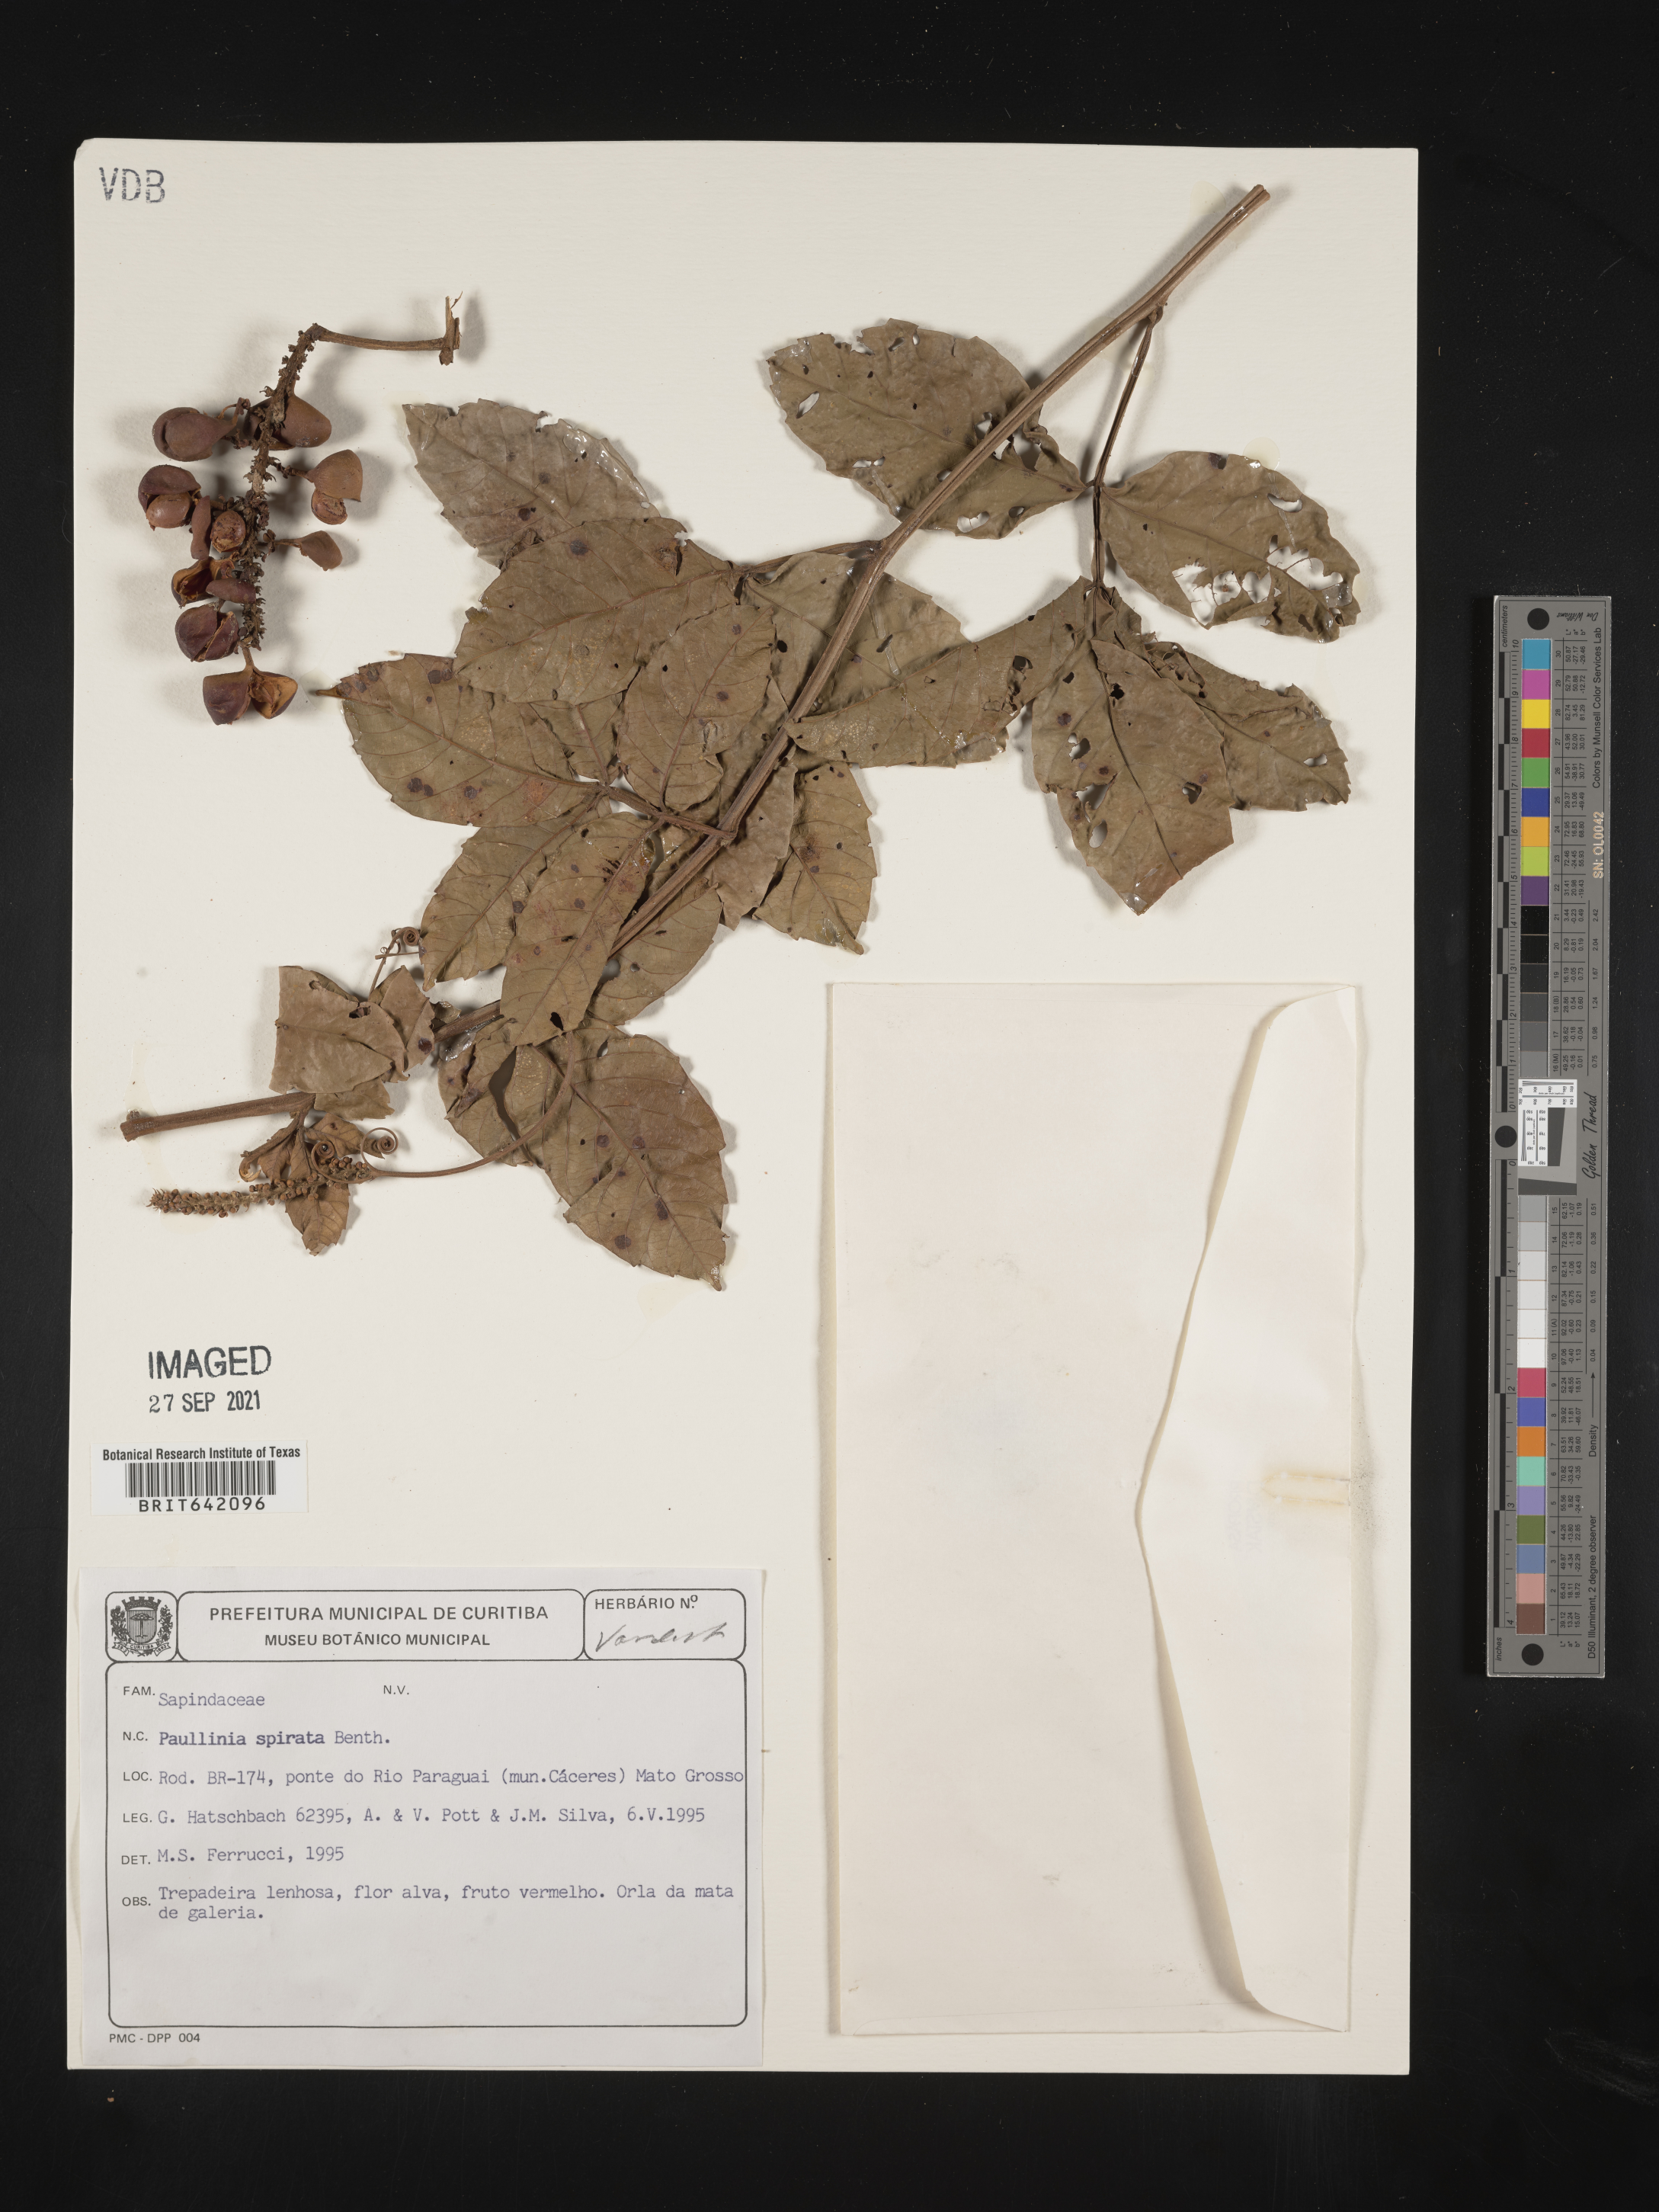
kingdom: Plantae
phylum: Tracheophyta
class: Magnoliopsida
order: Sapindales
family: Sapindaceae
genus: Paullinia
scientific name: Paullinia
